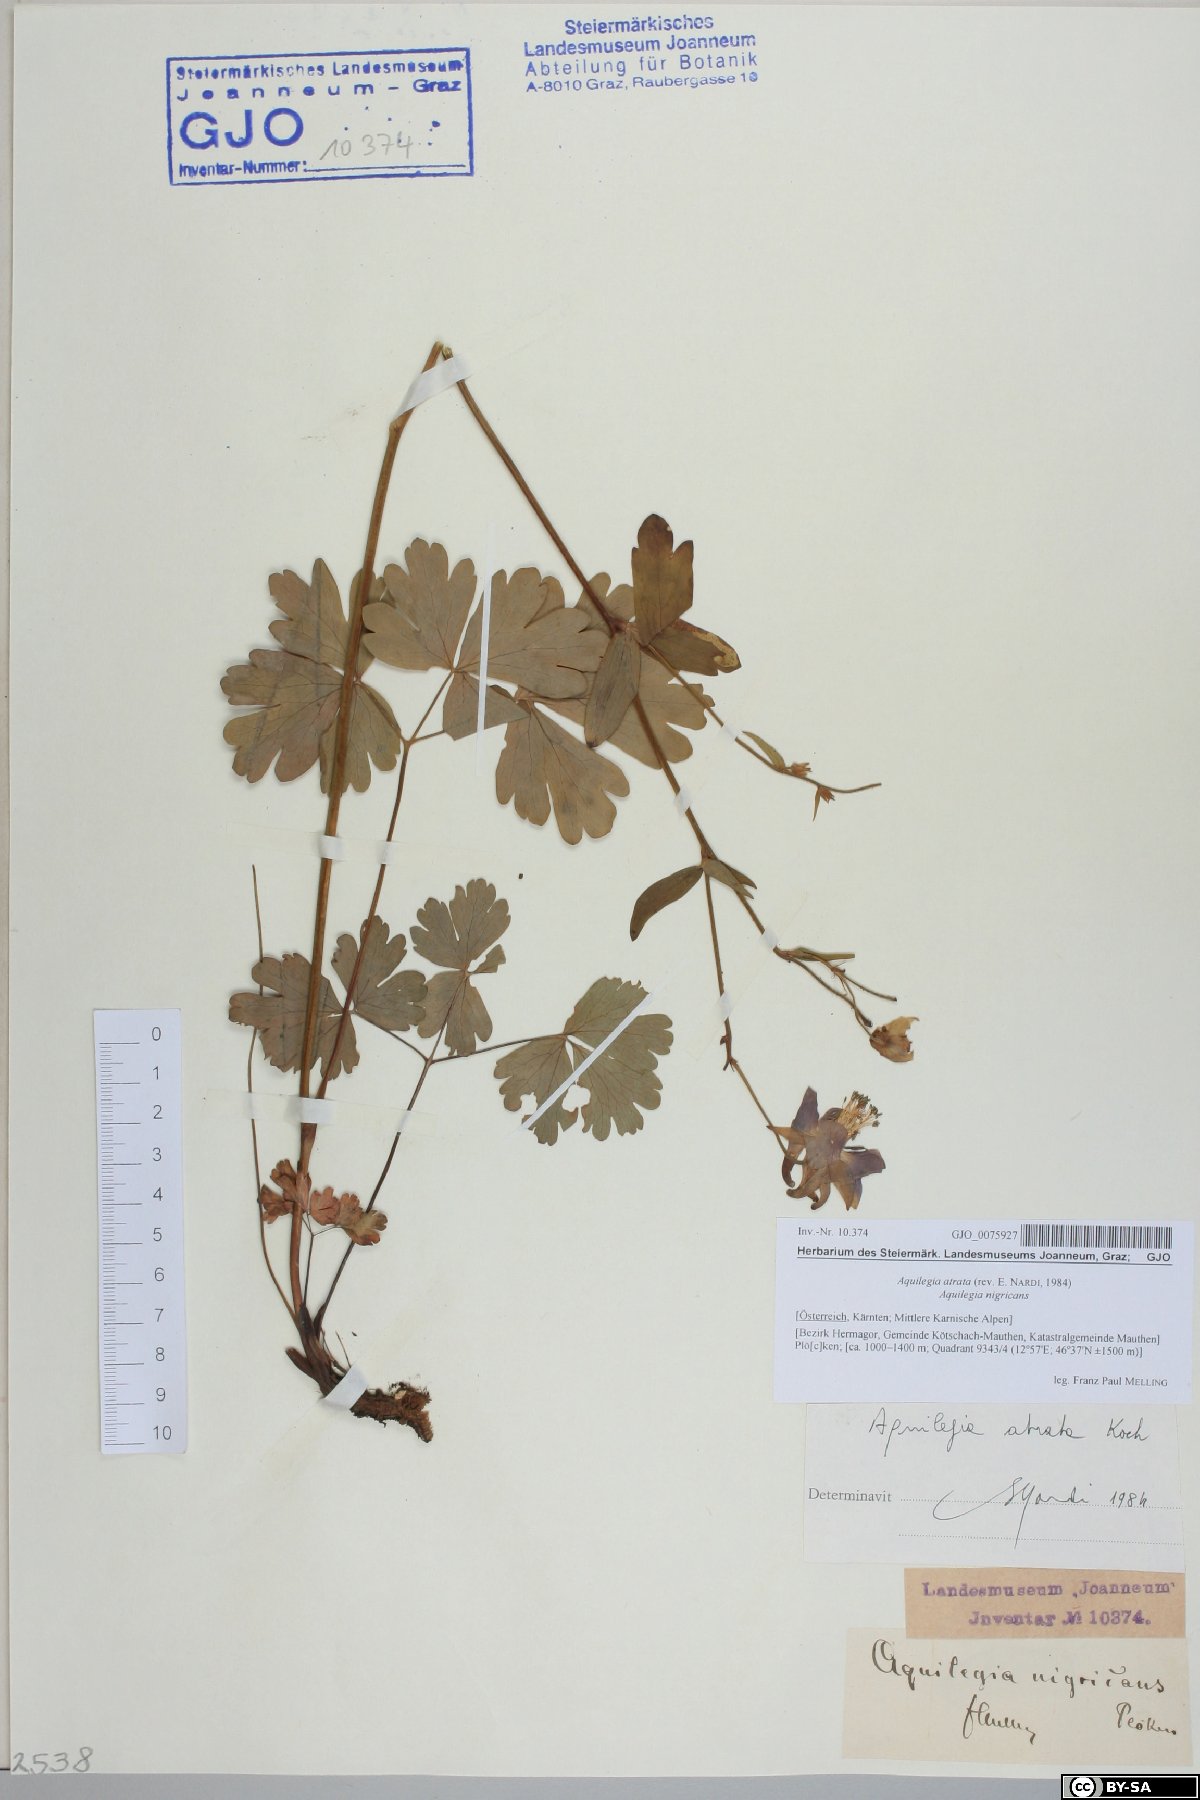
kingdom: Plantae
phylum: Tracheophyta
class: Magnoliopsida
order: Ranunculales
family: Ranunculaceae
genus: Aquilegia
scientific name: Aquilegia atrata
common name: Dark columbine
